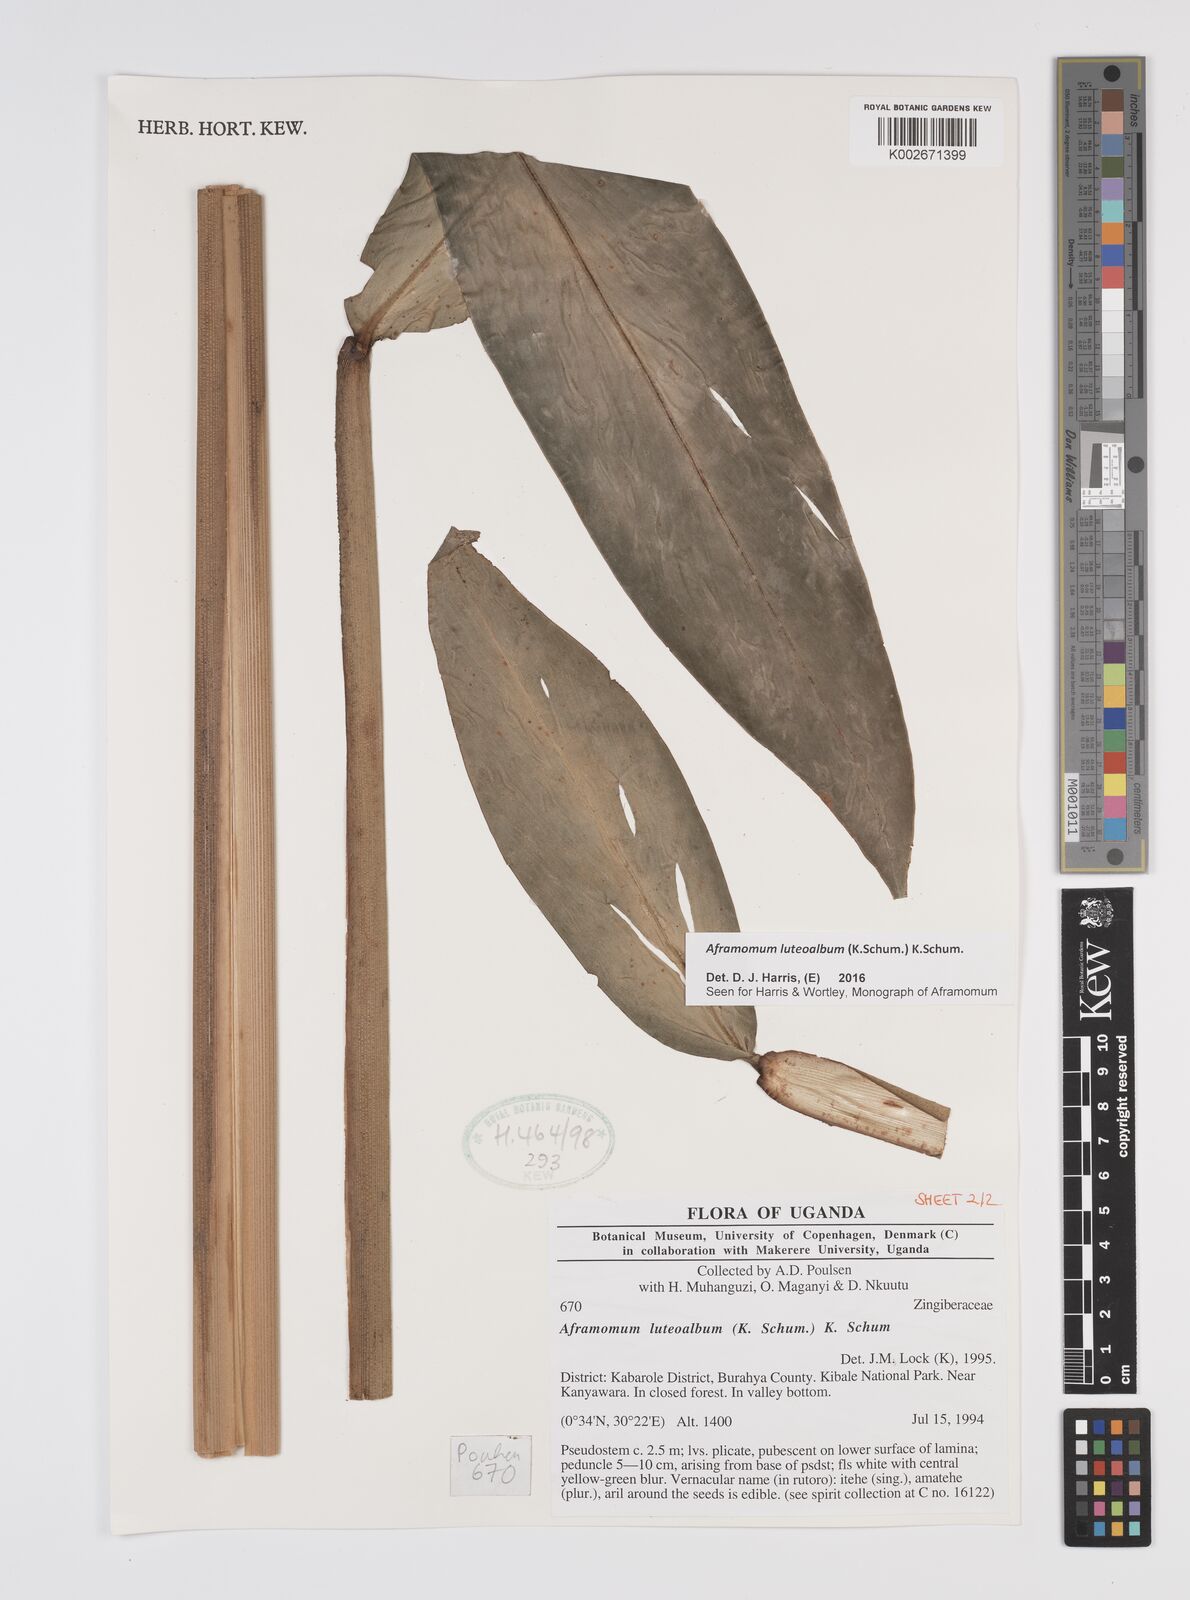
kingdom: Plantae
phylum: Tracheophyta
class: Liliopsida
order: Zingiberales
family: Zingiberaceae
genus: Aframomum
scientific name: Aframomum luteoalbum
